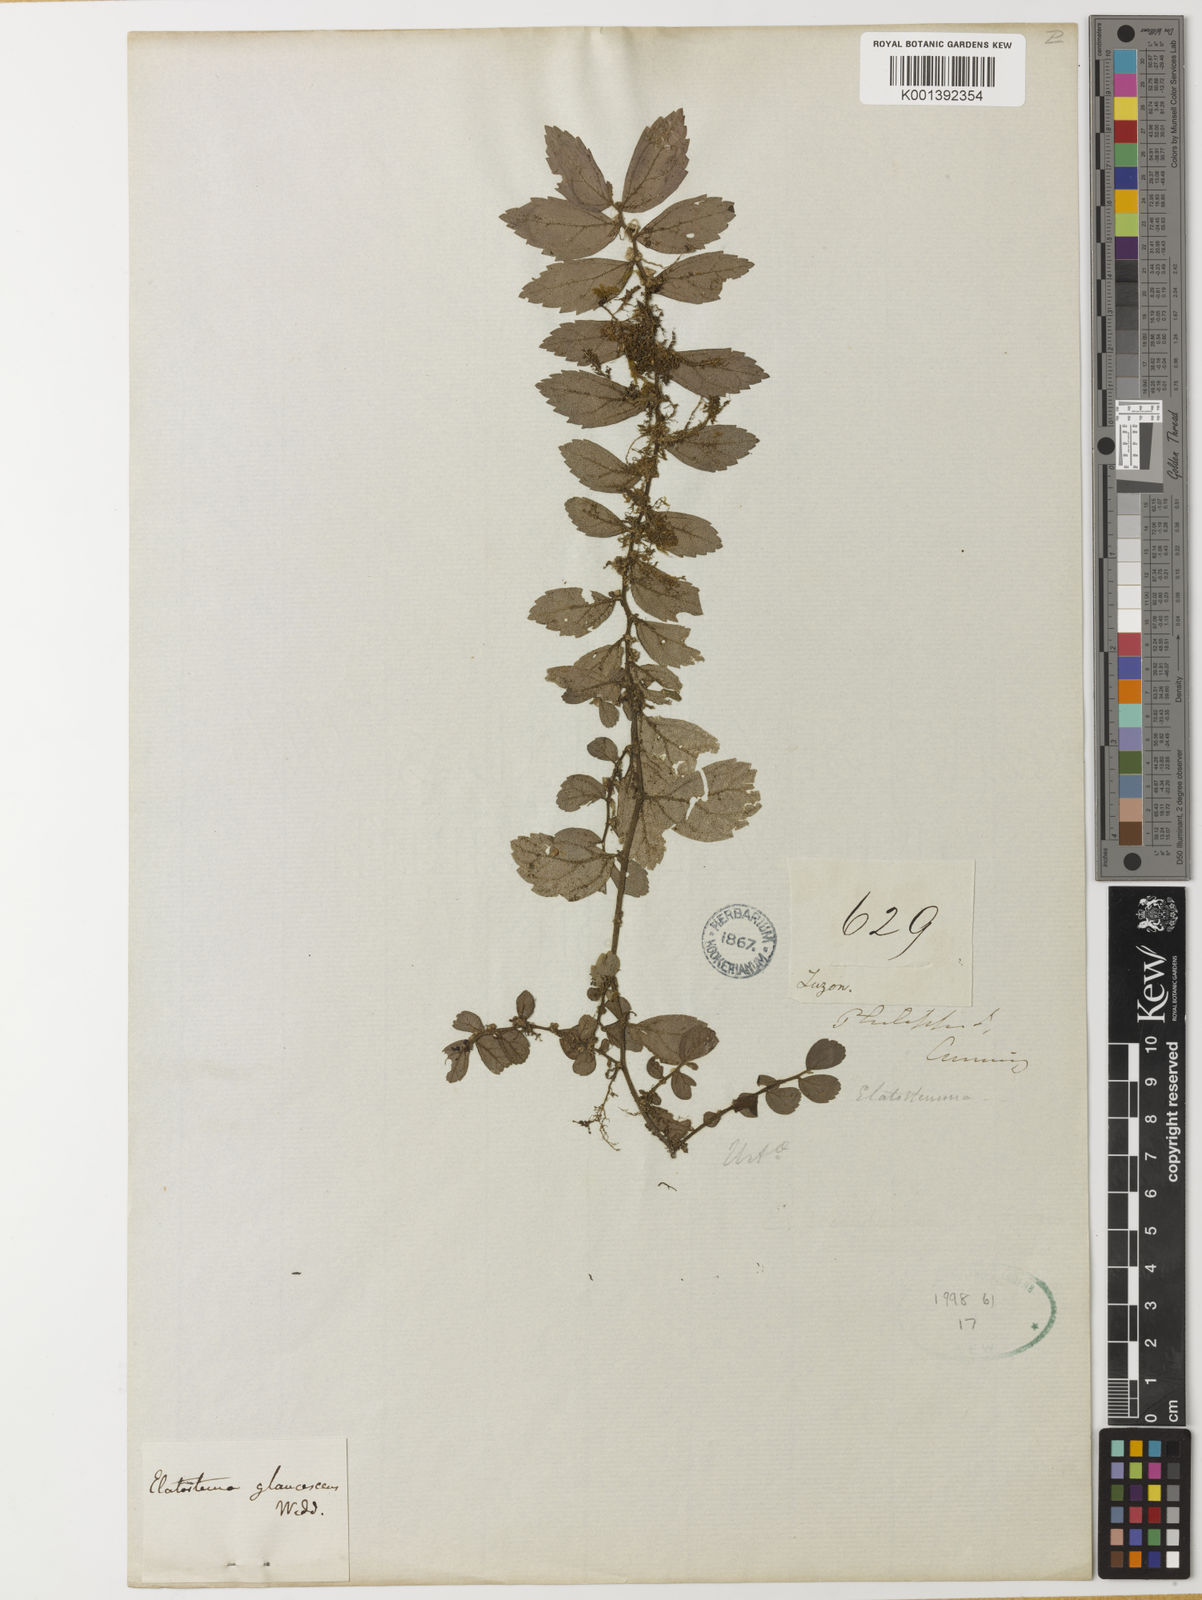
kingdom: Plantae
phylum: Tracheophyta
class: Magnoliopsida
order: Rosales
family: Urticaceae
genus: Elatostema
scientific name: Elatostema
